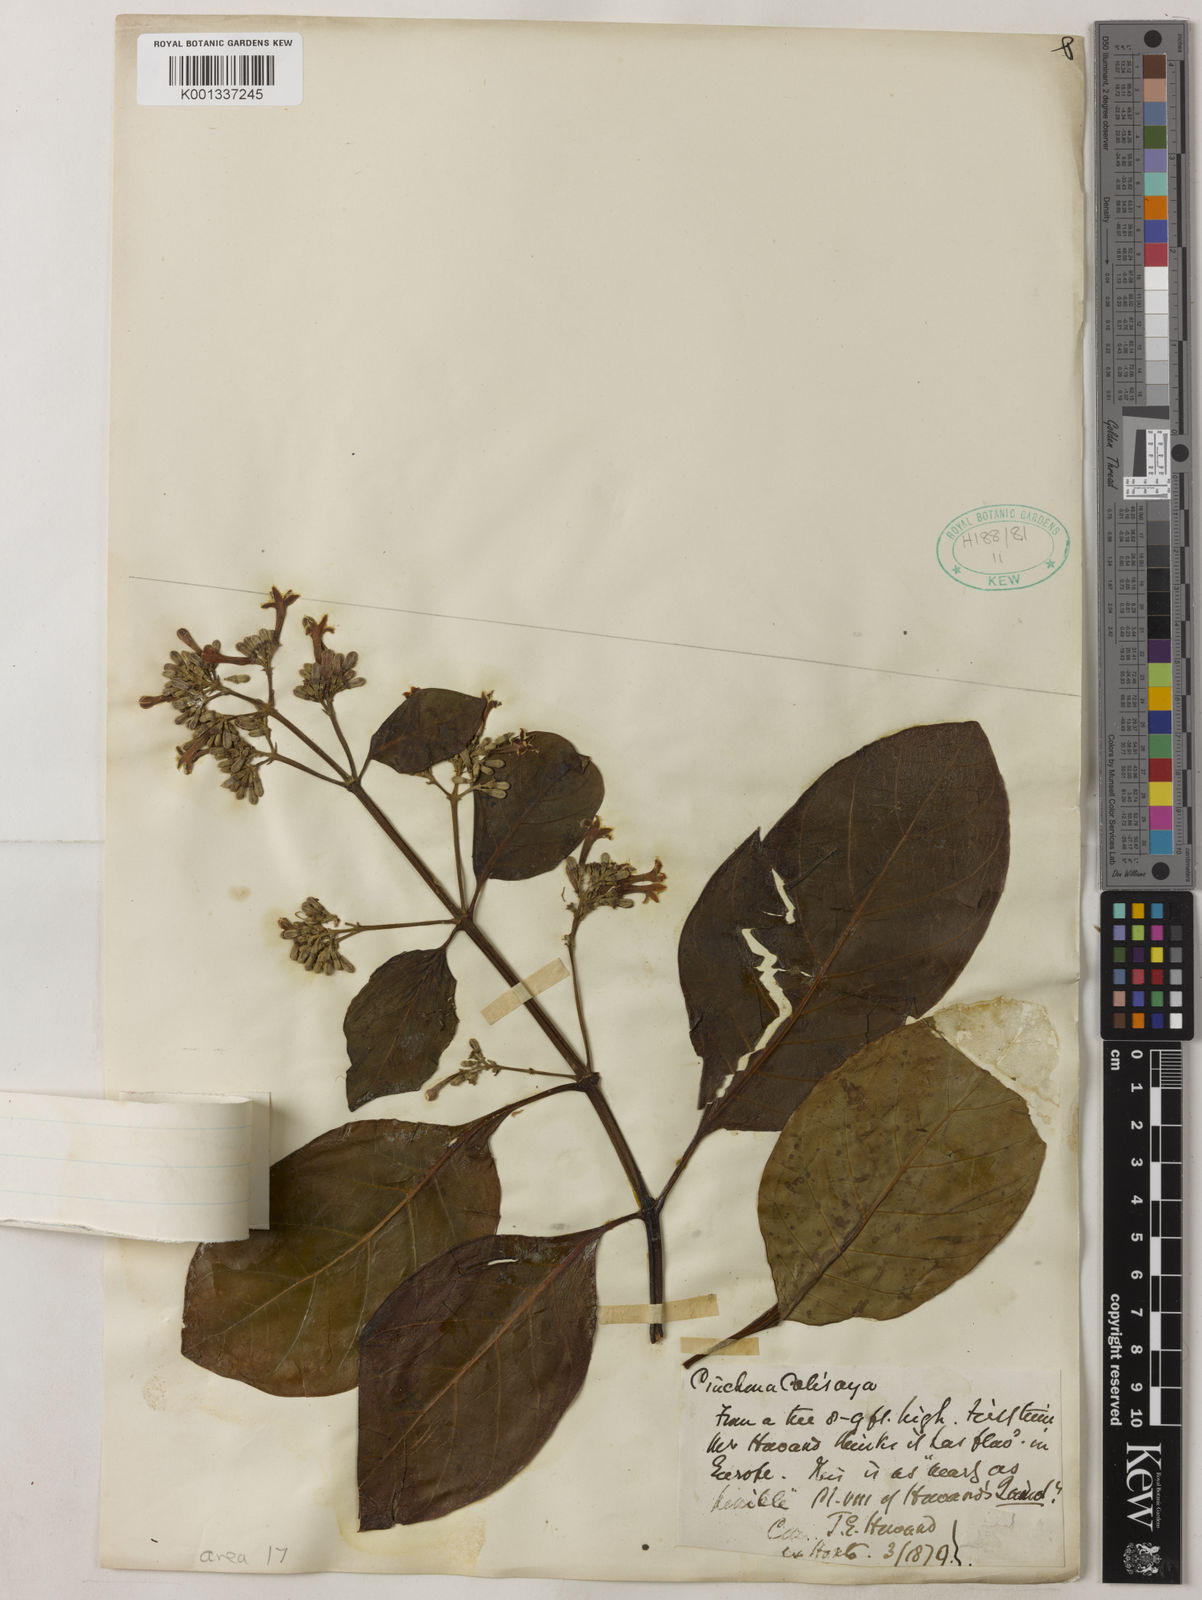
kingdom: Plantae
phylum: Tracheophyta
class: Magnoliopsida
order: Gentianales
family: Rubiaceae
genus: Cinchona
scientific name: Cinchona calisaya
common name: Ledgerbark
